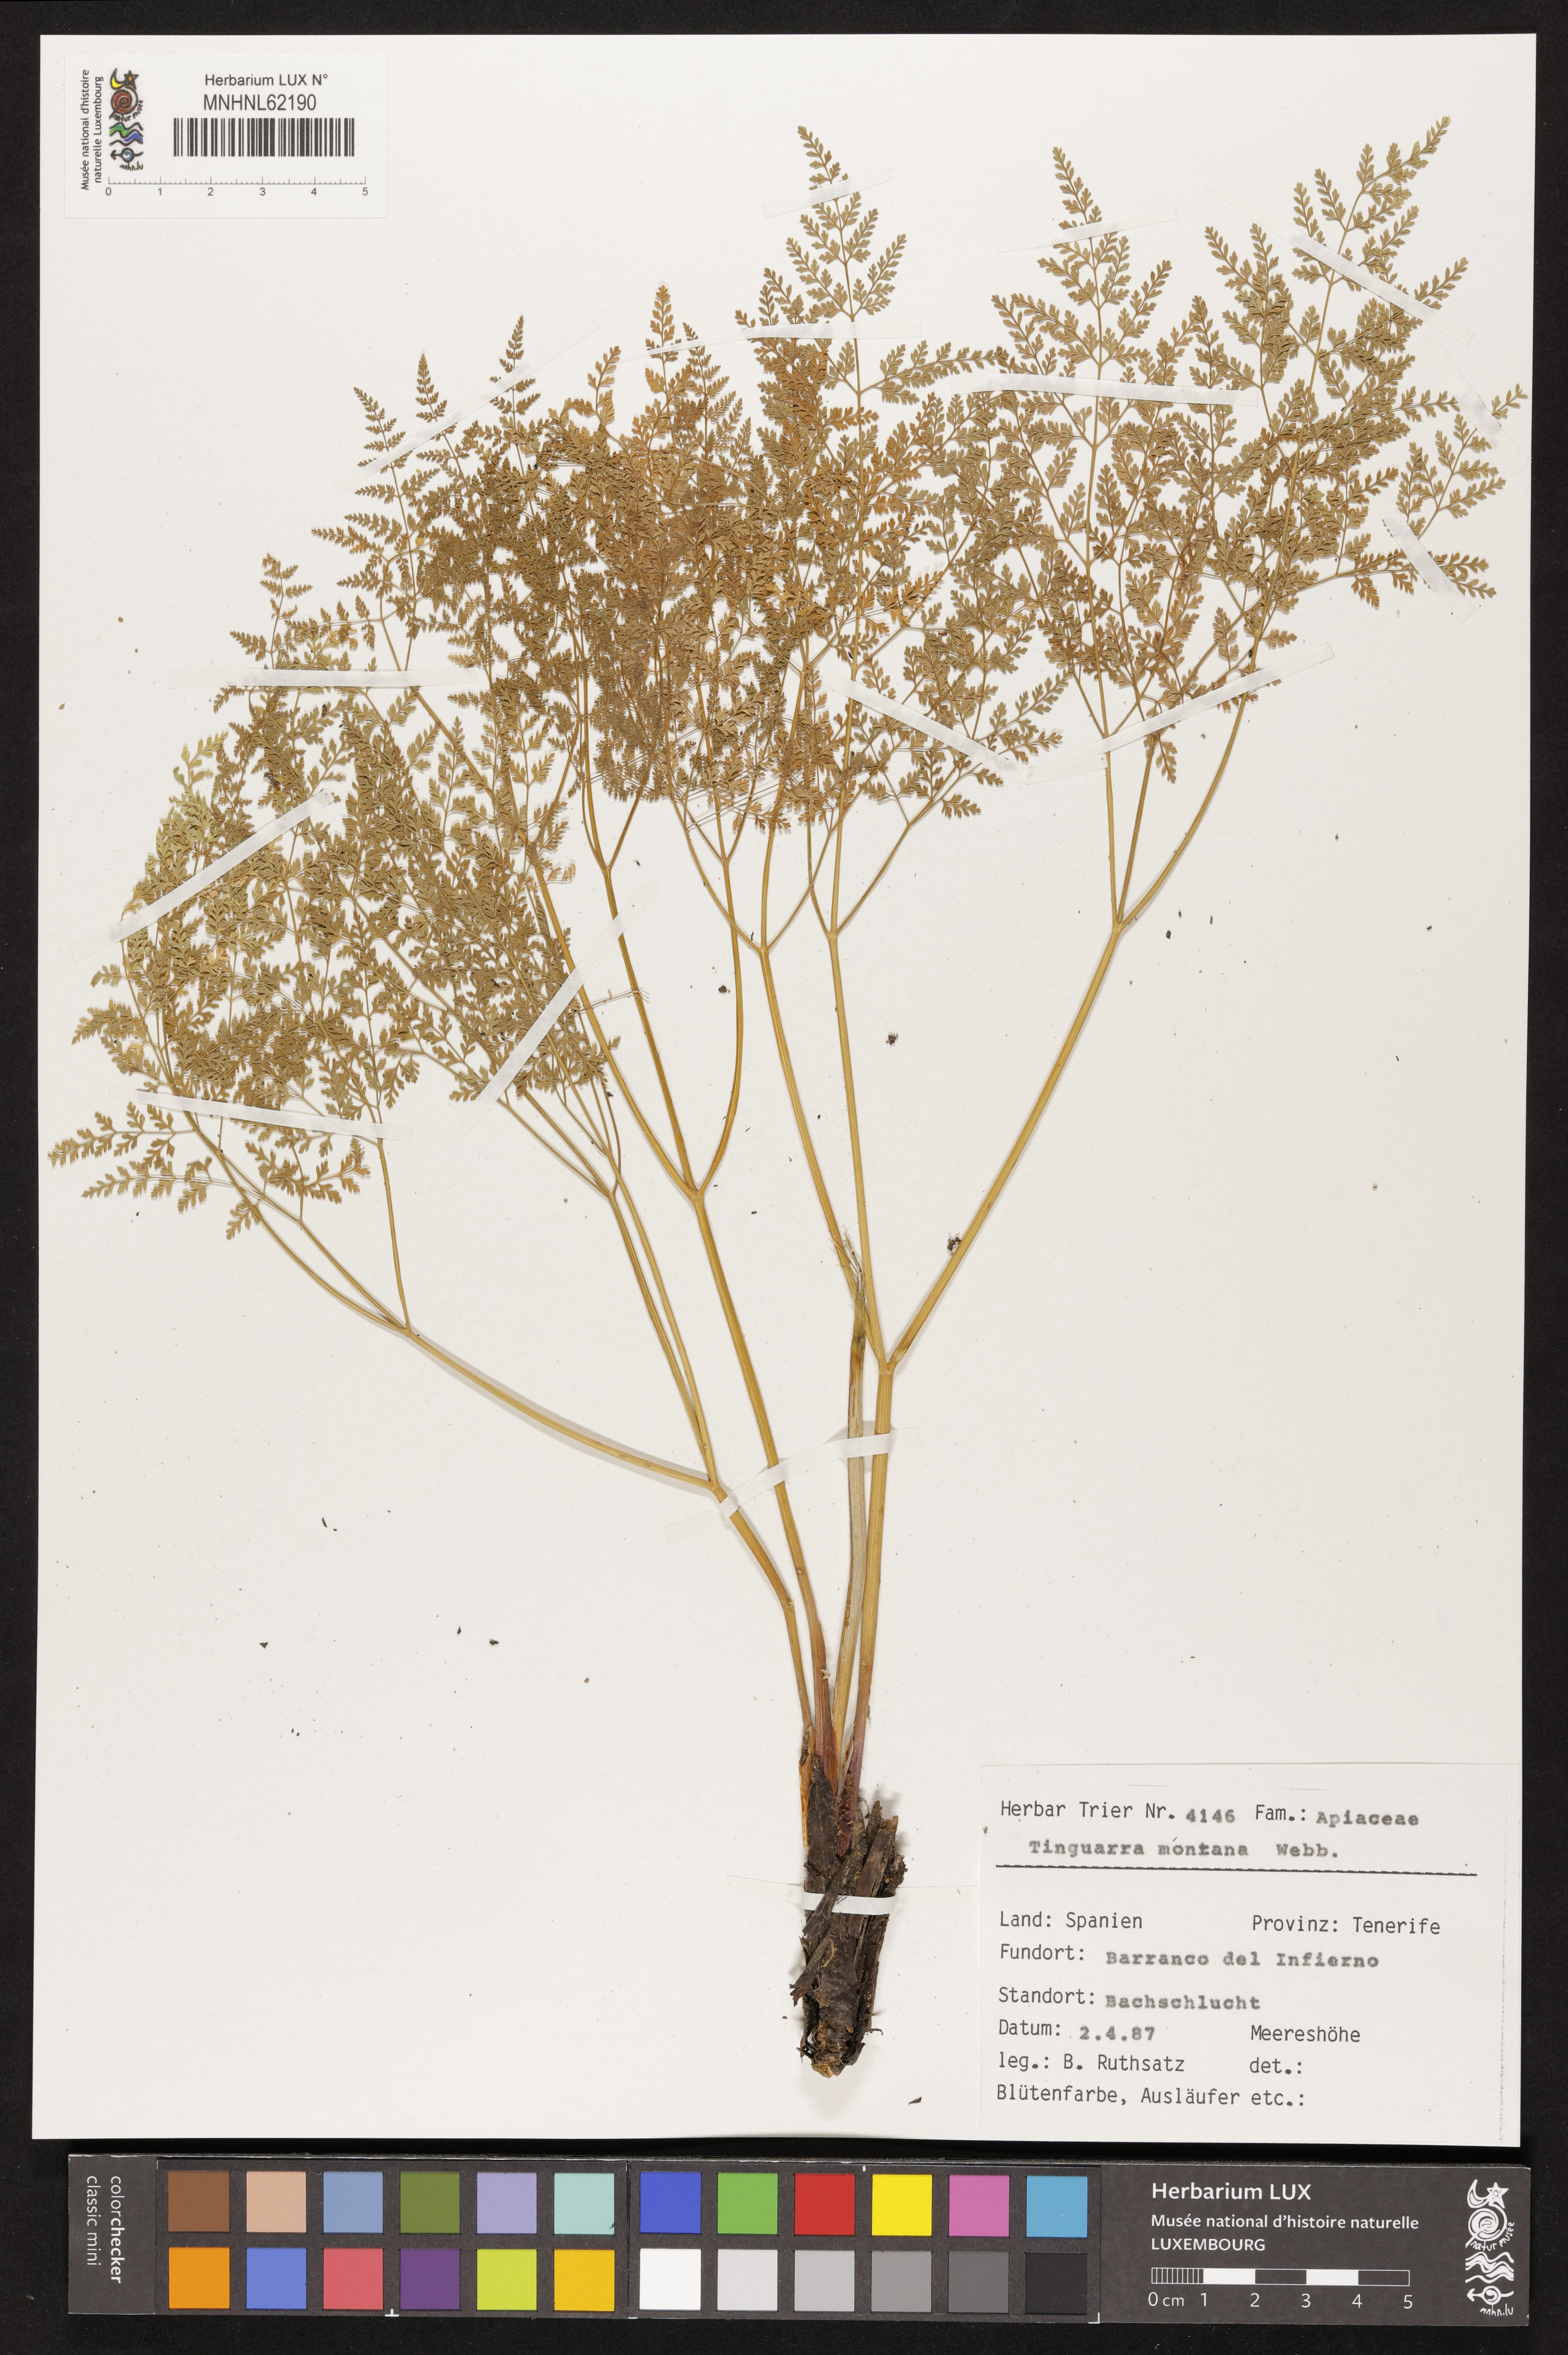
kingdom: Plantae
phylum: Tracheophyta
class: Magnoliopsida
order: Apiales
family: Apiaceae
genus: Athamanta
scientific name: Athamanta montana
